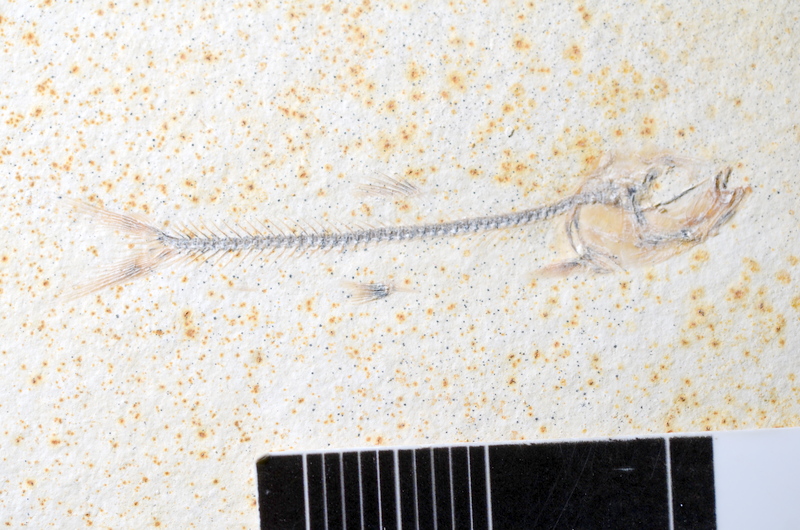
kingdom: Animalia
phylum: Chordata
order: Salmoniformes
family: Orthogonikleithridae
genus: Orthogonikleithrus
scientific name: Orthogonikleithrus hoelli
